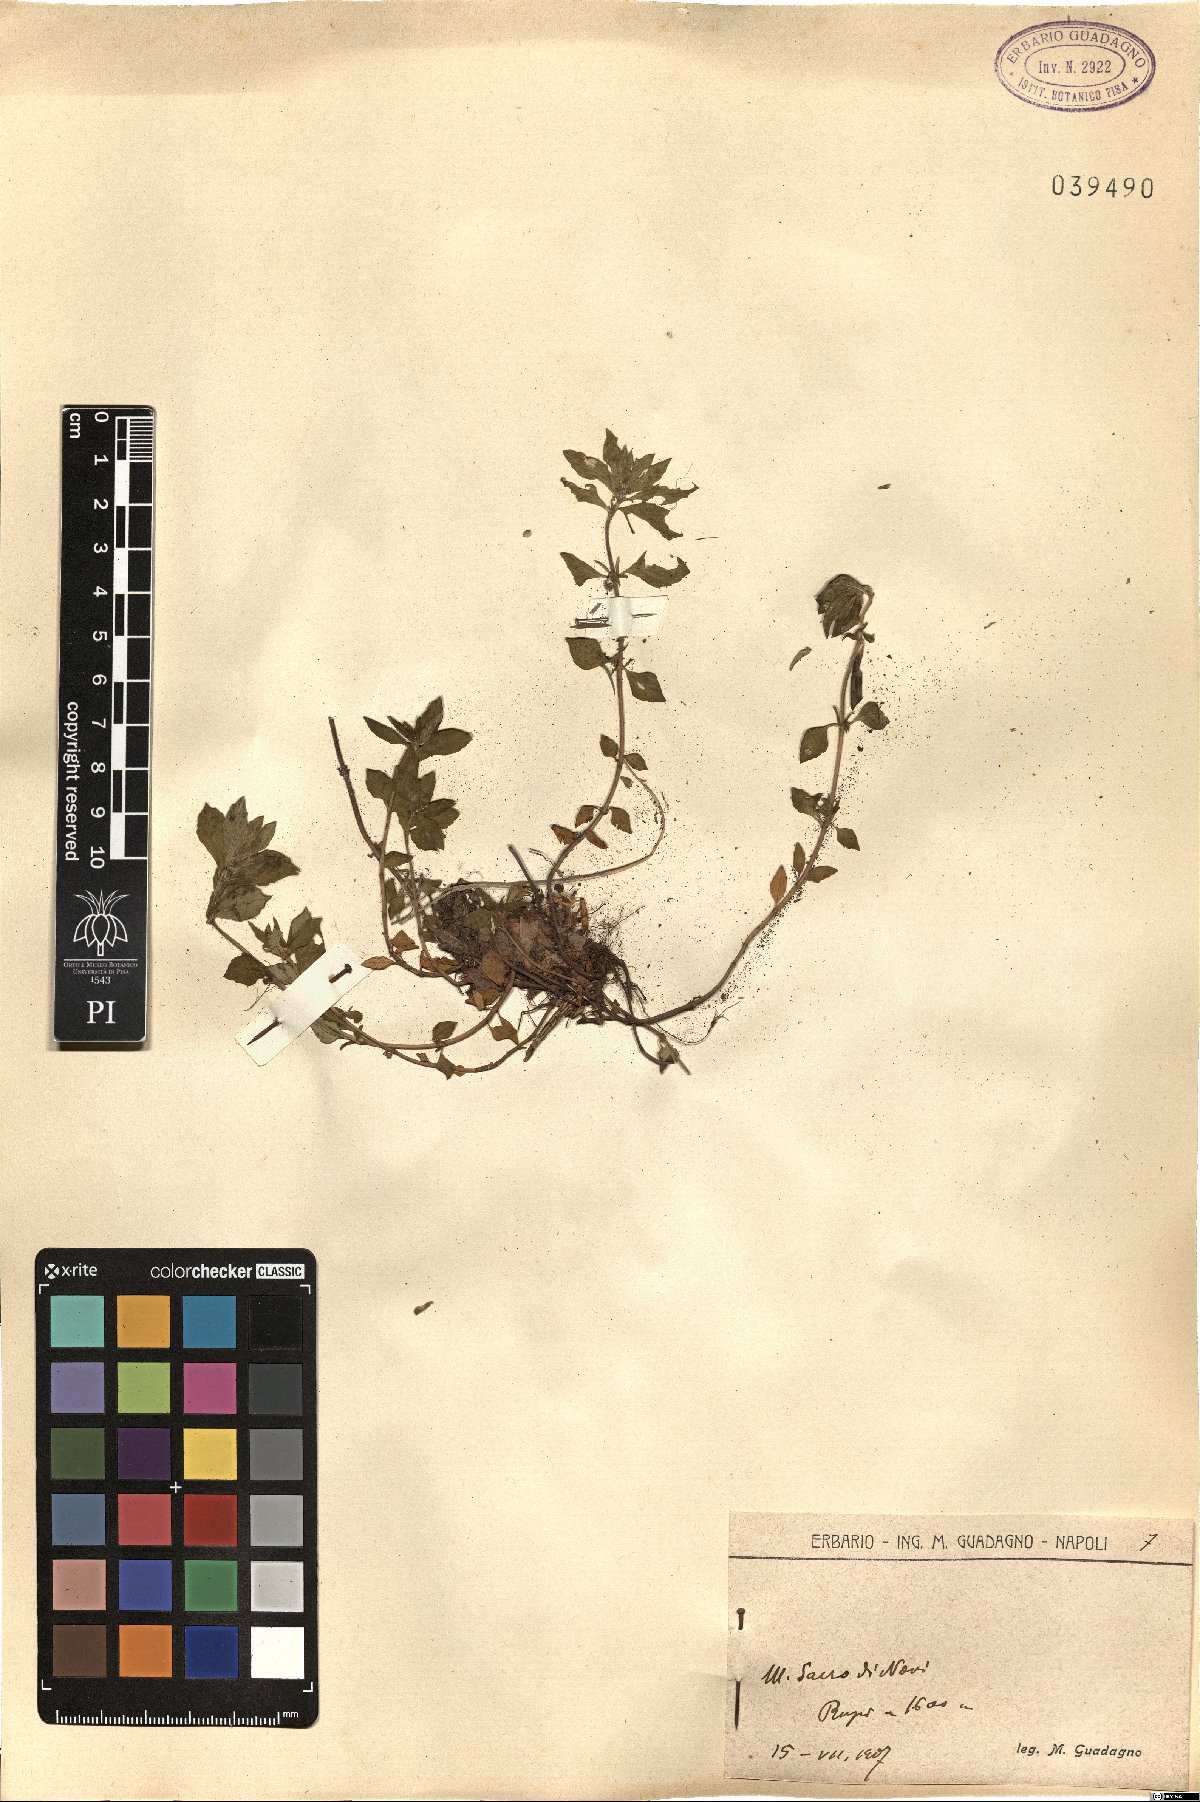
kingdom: Plantae
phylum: Tracheophyta
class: Magnoliopsida
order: Lamiales
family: Lamiaceae
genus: Calamintha
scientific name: Calamintha
